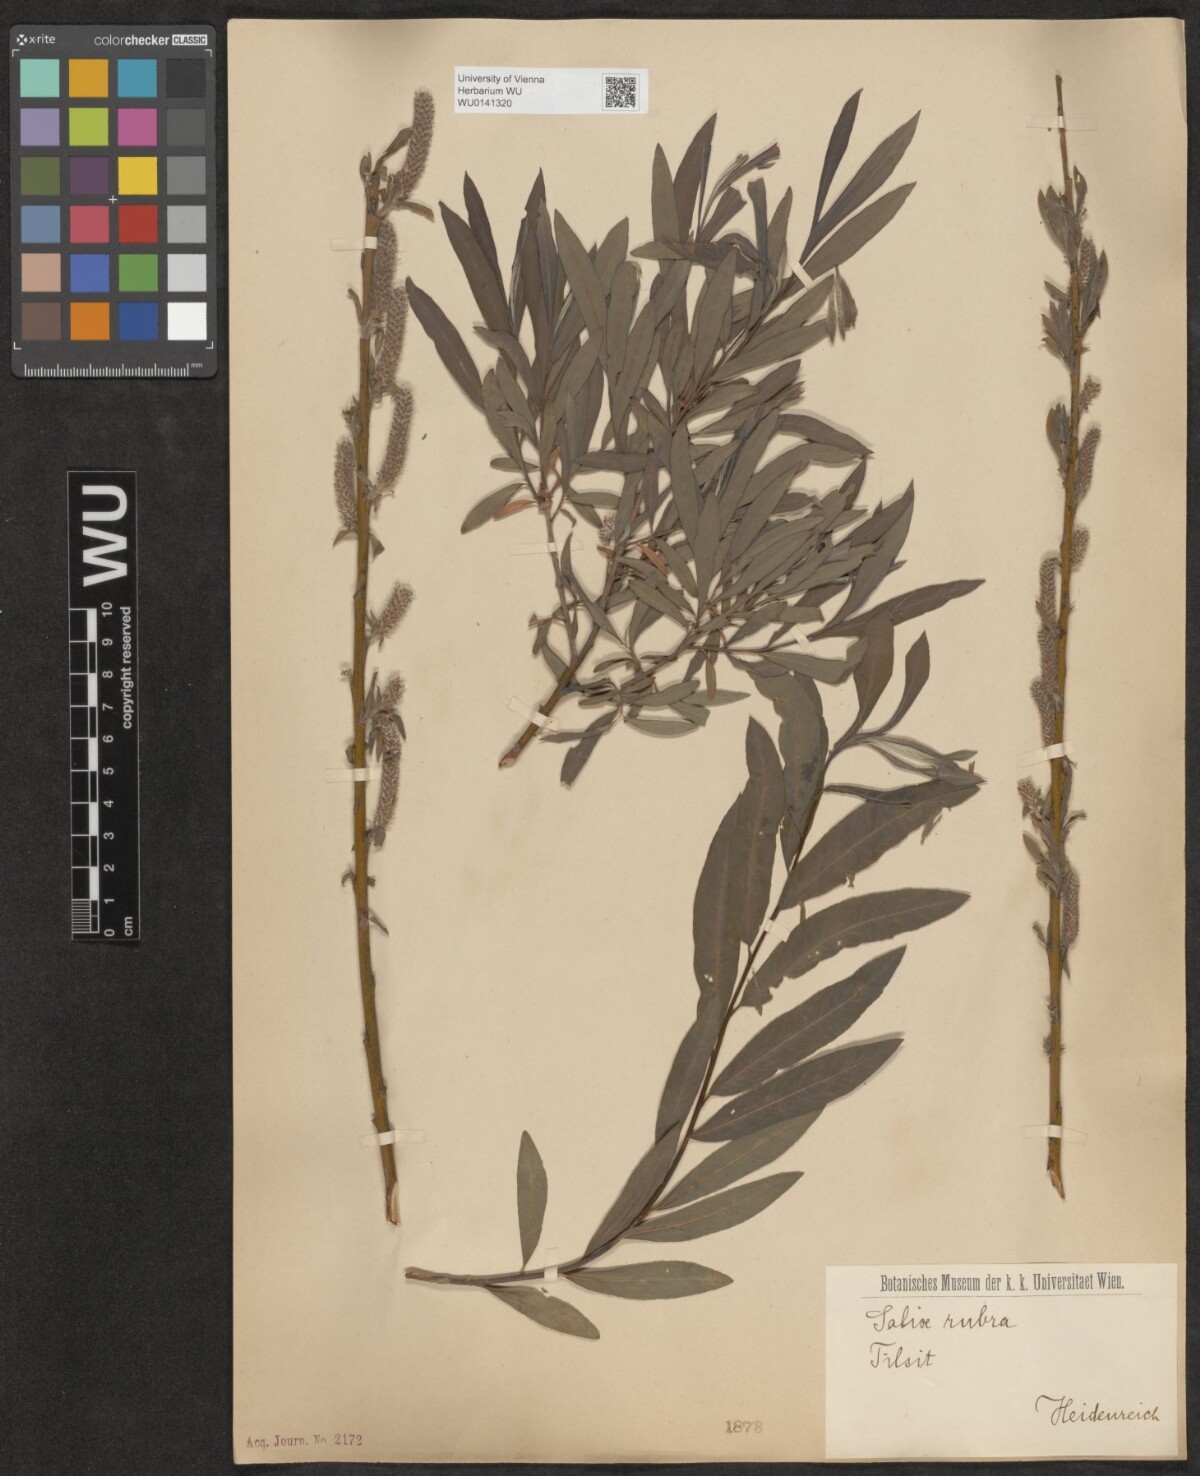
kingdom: Plantae
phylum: Tracheophyta
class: Magnoliopsida
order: Malpighiales
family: Salicaceae
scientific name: Salicaceae
